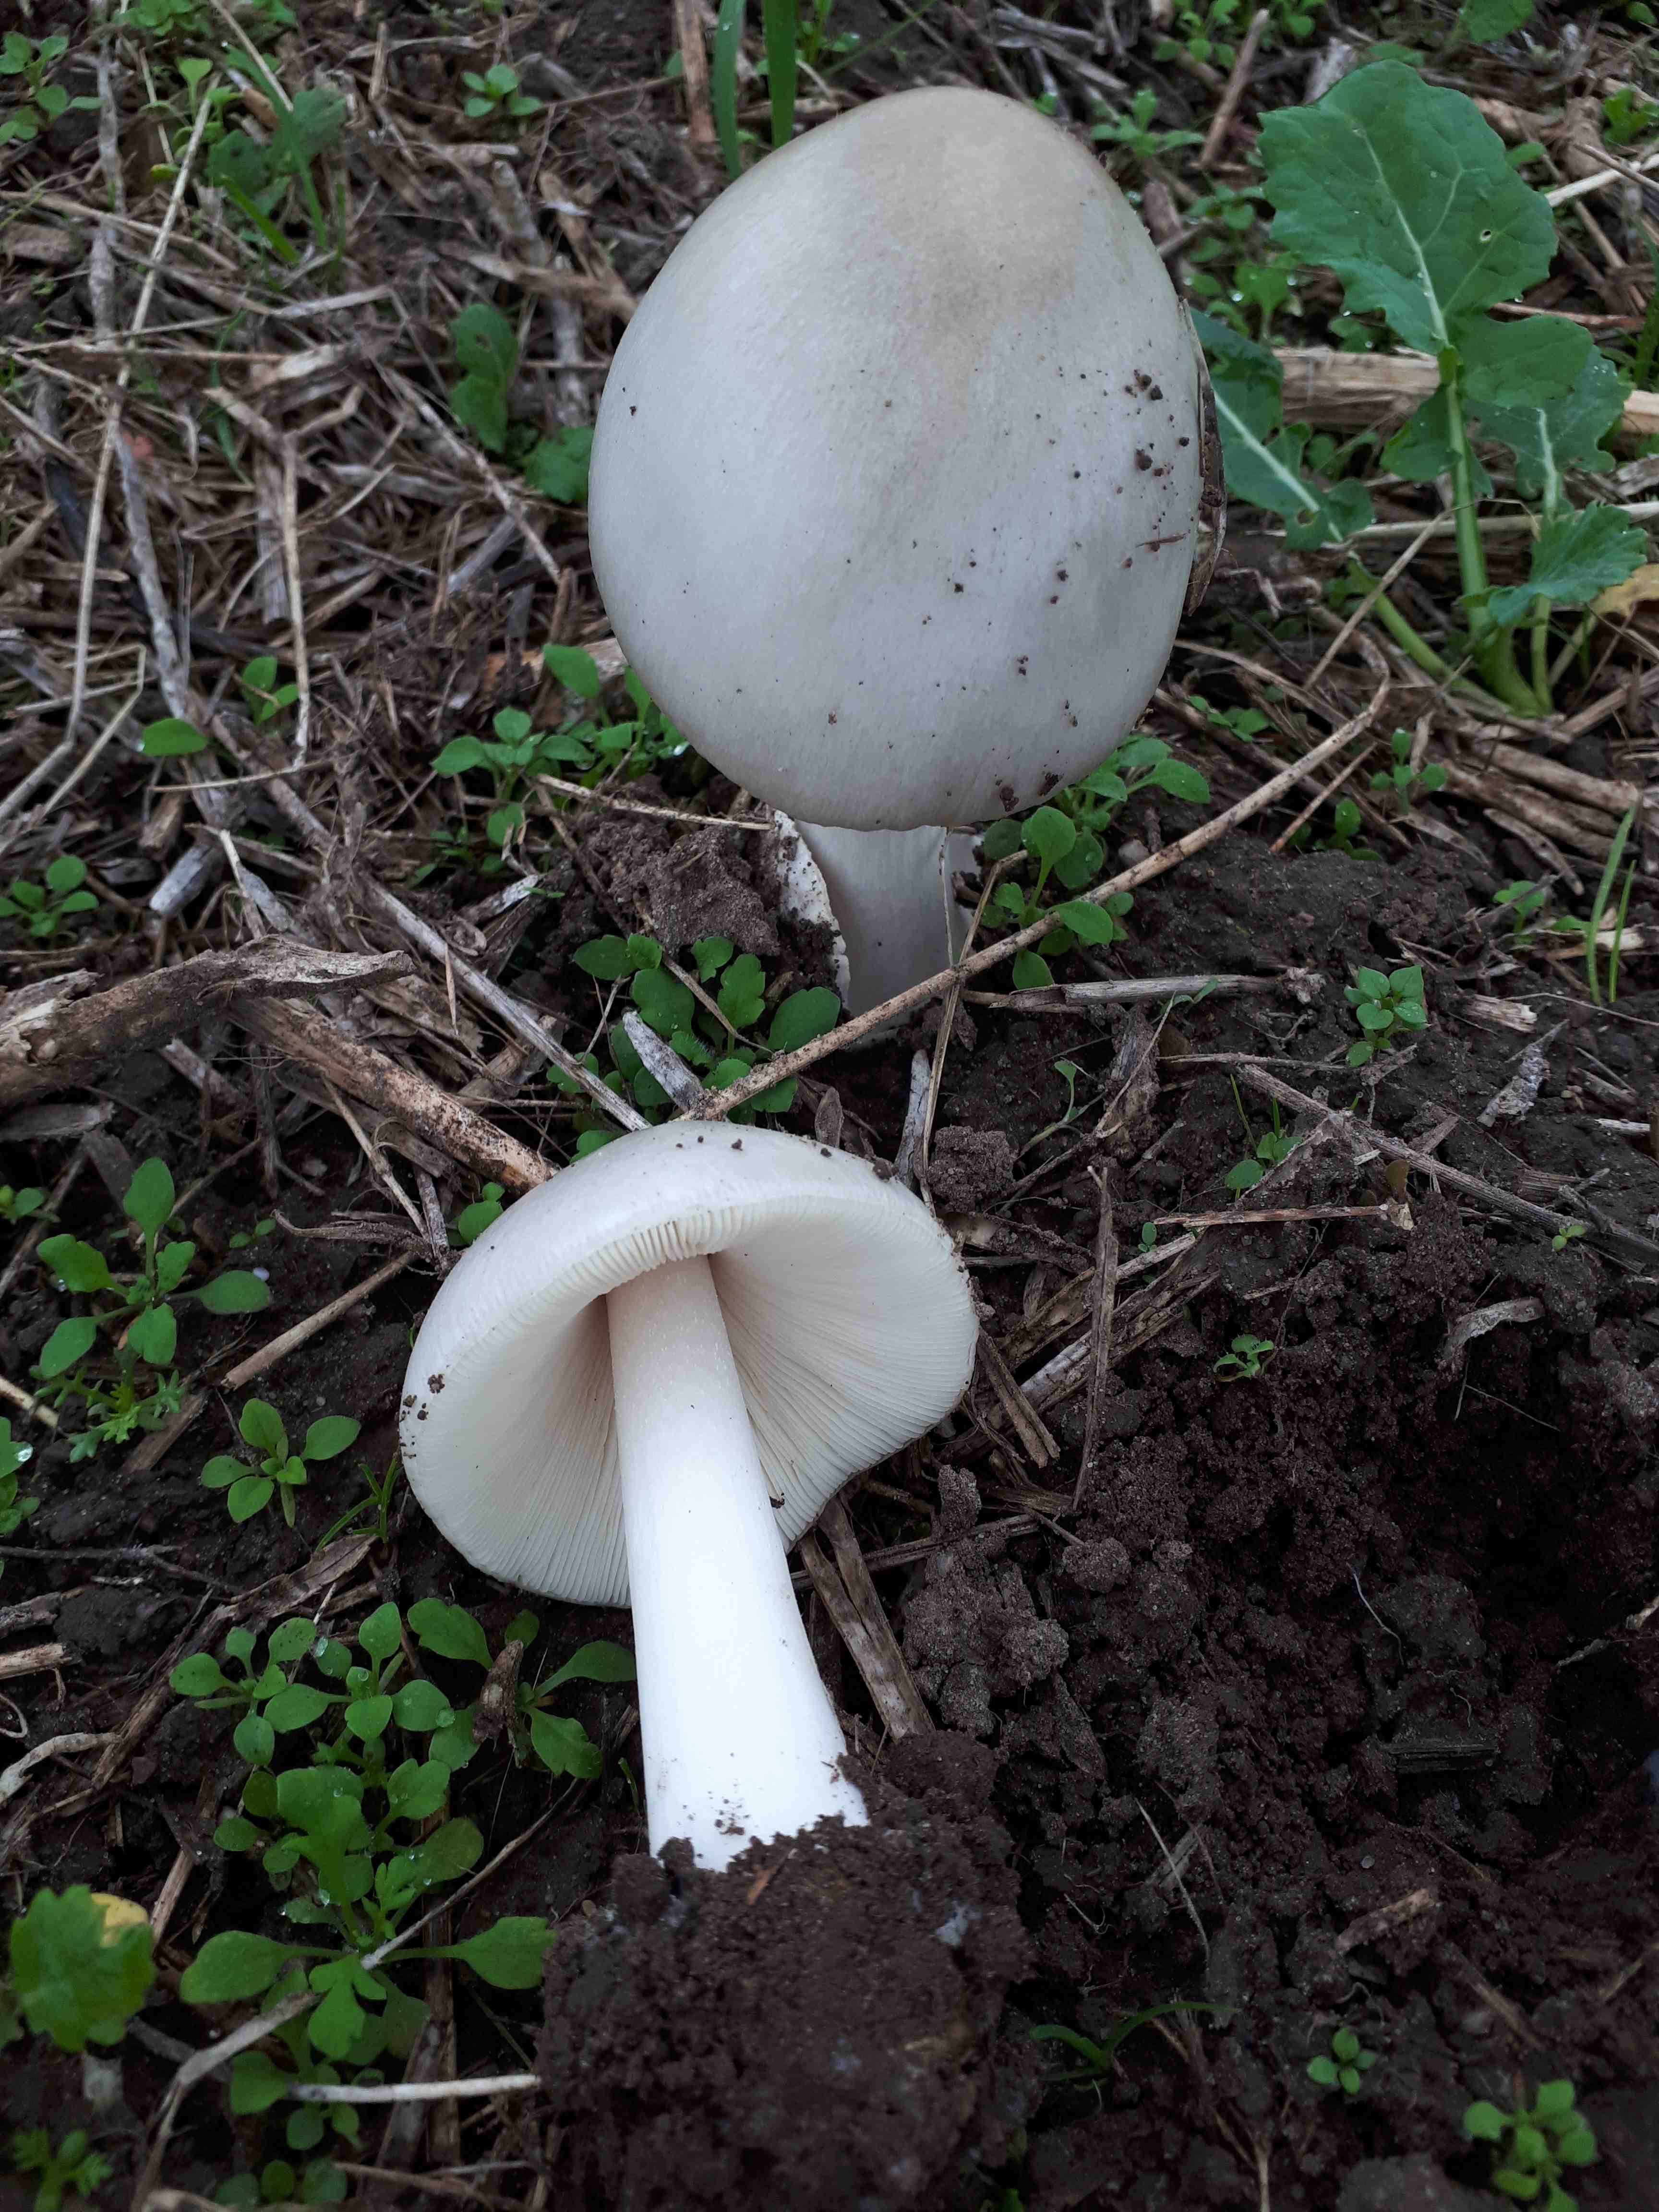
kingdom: Fungi
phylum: Basidiomycota
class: Agaricomycetes
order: Agaricales
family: Pluteaceae
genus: Volvopluteus
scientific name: Volvopluteus gloiocephalus
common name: høj posesvamp
